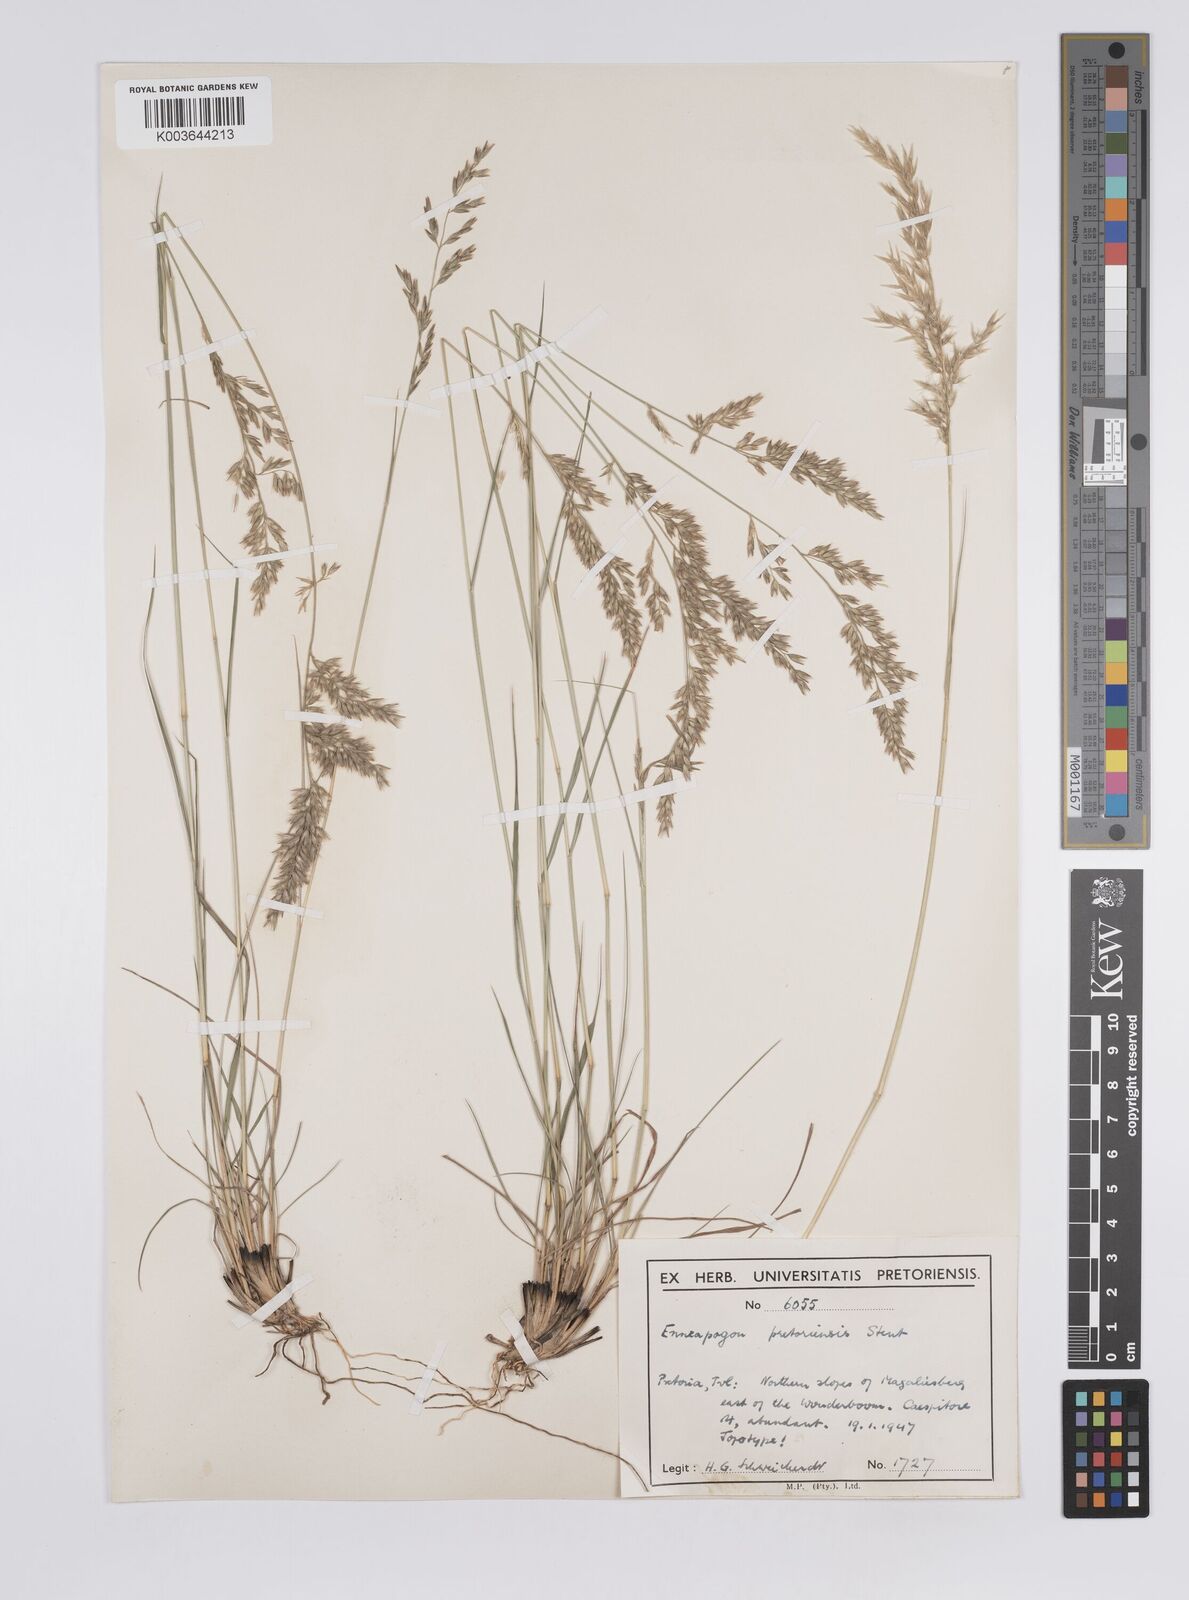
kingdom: Plantae
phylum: Tracheophyta
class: Liliopsida
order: Poales
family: Poaceae
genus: Enneapogon
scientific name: Enneapogon pretoriensis
